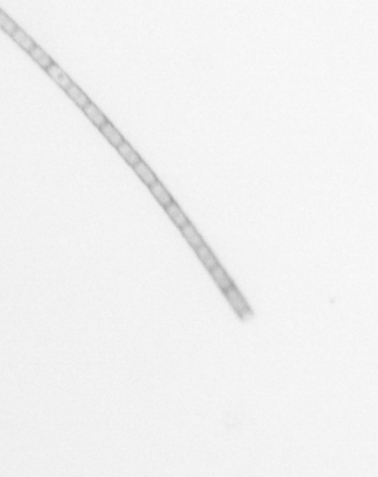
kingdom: Chromista
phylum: Ochrophyta
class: Bacillariophyceae
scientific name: Bacillariophyceae
